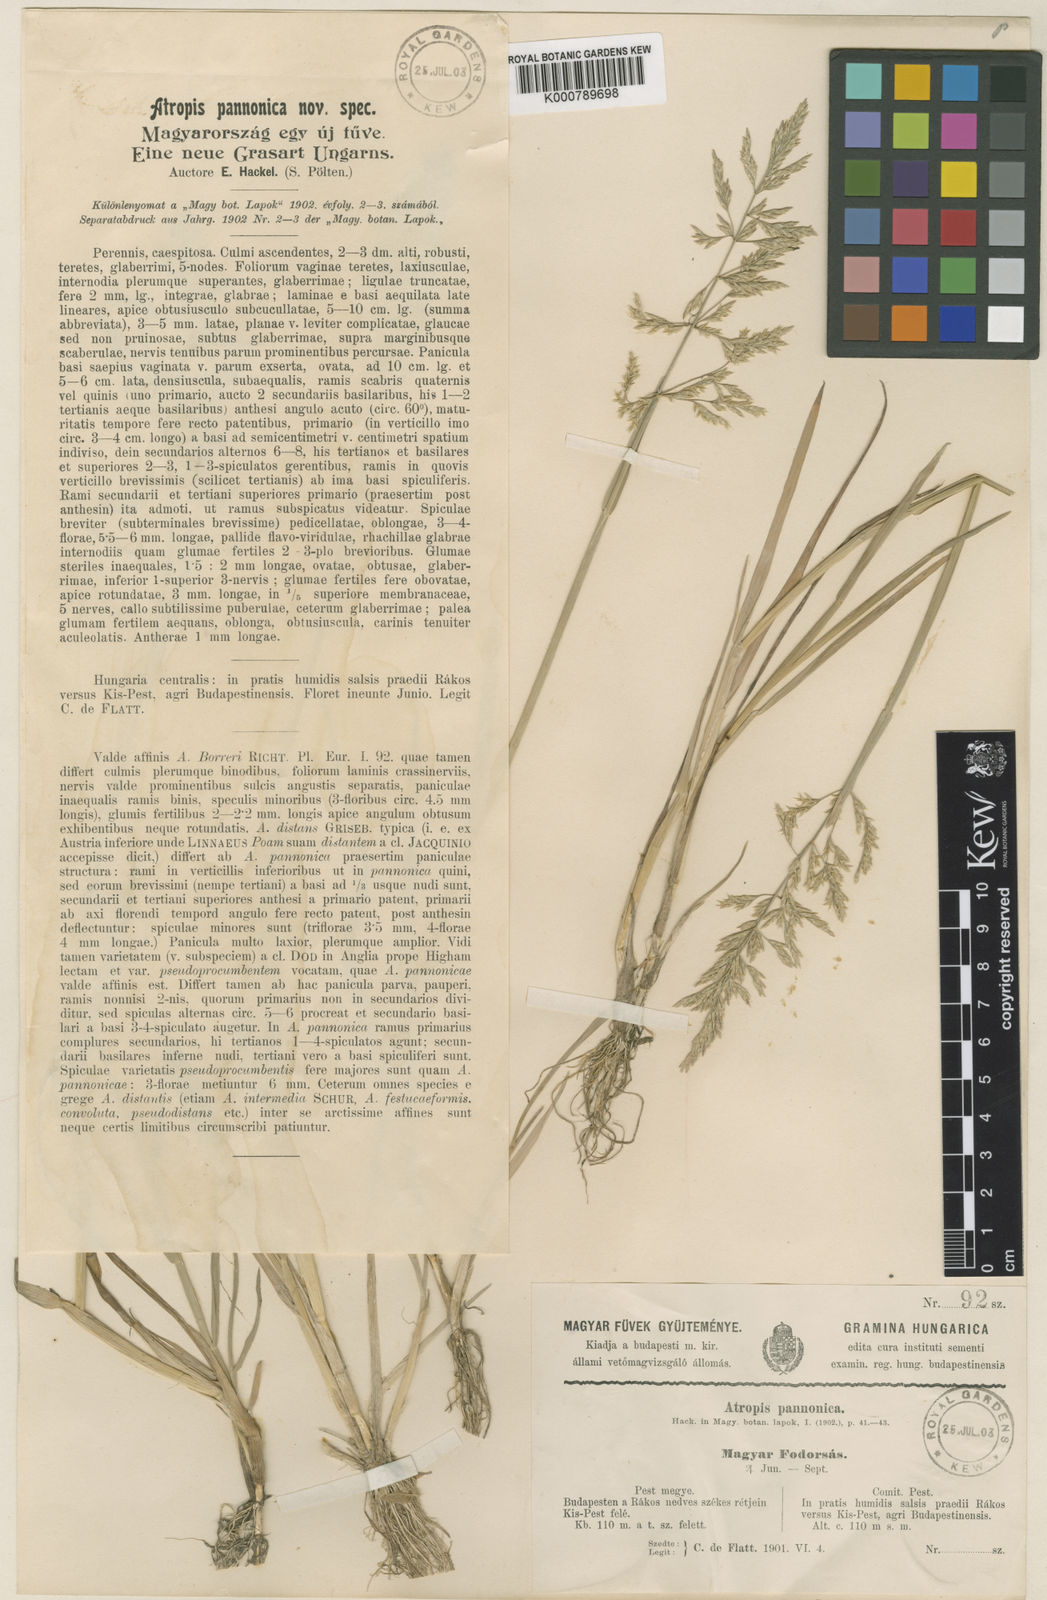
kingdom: Plantae
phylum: Tracheophyta
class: Liliopsida
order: Poales
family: Poaceae
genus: Puccinellia
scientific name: Puccinellia distans
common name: Weeping alkaligrass
